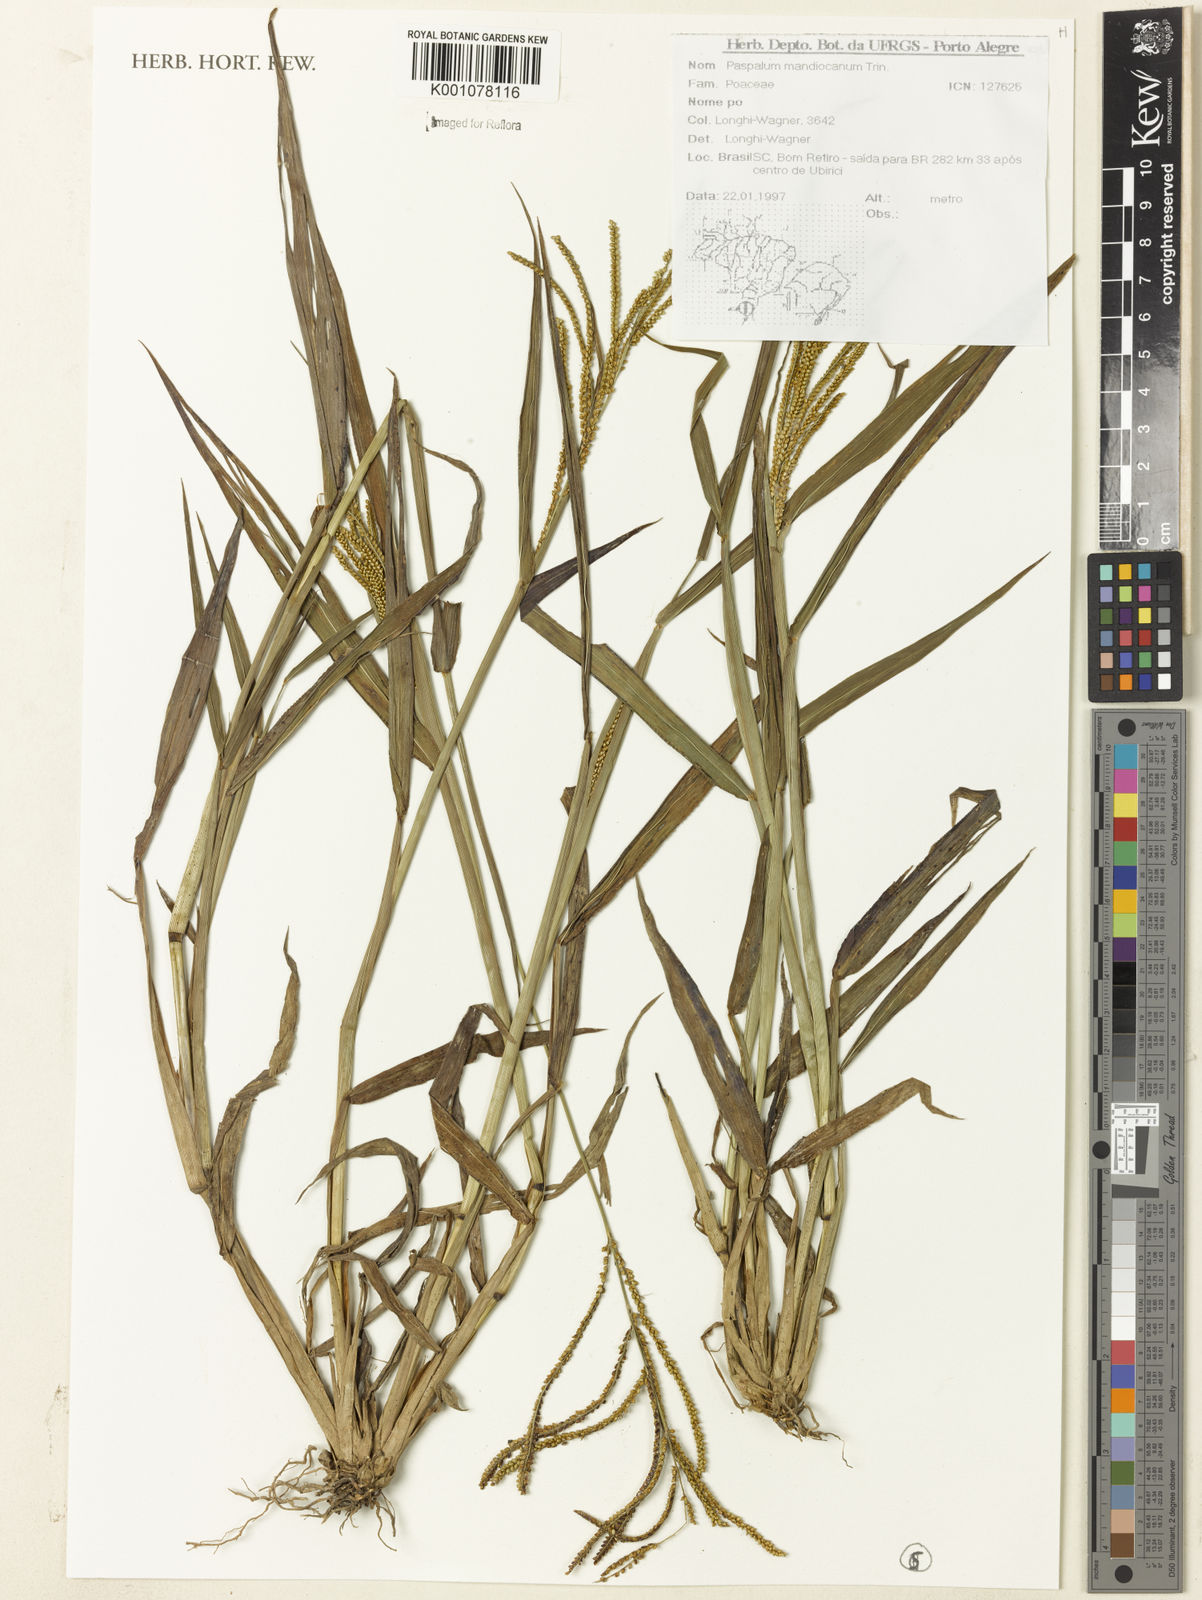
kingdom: Plantae
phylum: Tracheophyta
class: Liliopsida
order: Poales
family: Poaceae
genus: Paspalum
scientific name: Paspalum mandiocanum
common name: Paspalum
